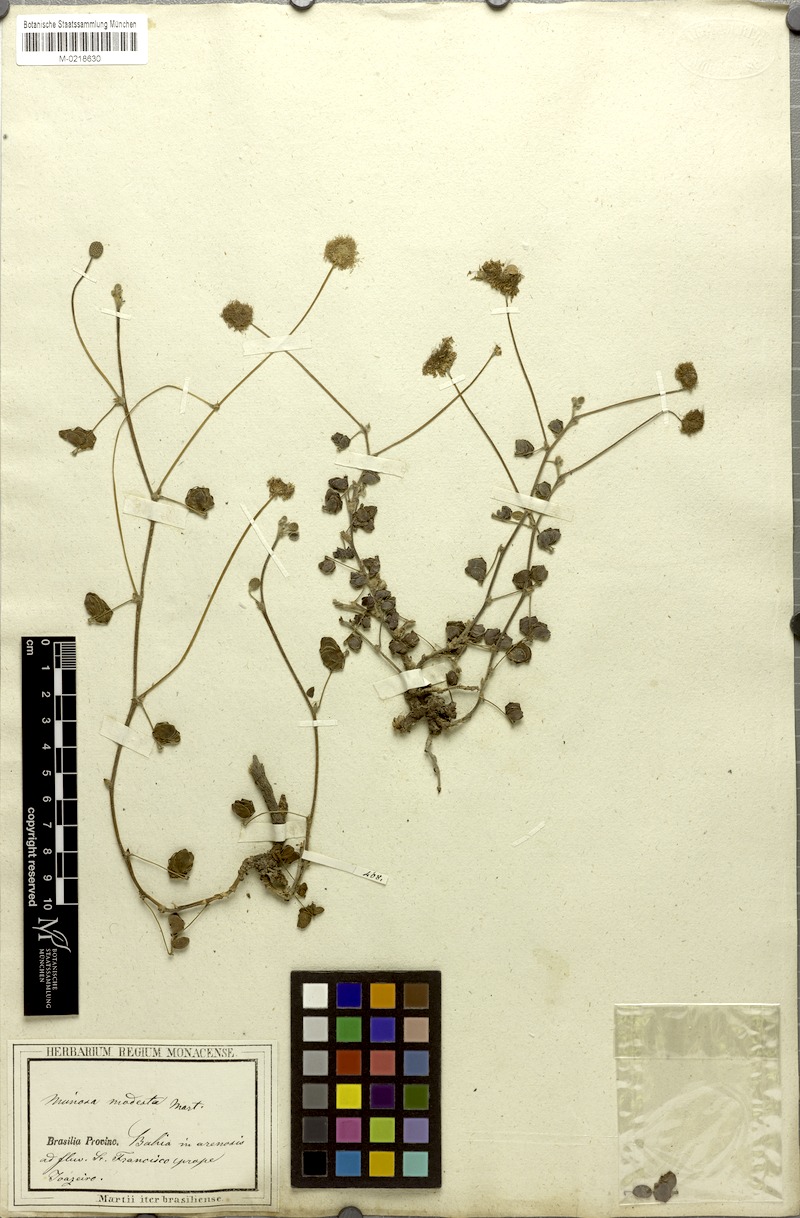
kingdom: Plantae
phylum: Tracheophyta
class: Magnoliopsida
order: Fabales
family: Fabaceae
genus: Mimosa
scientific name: Mimosa modesta
